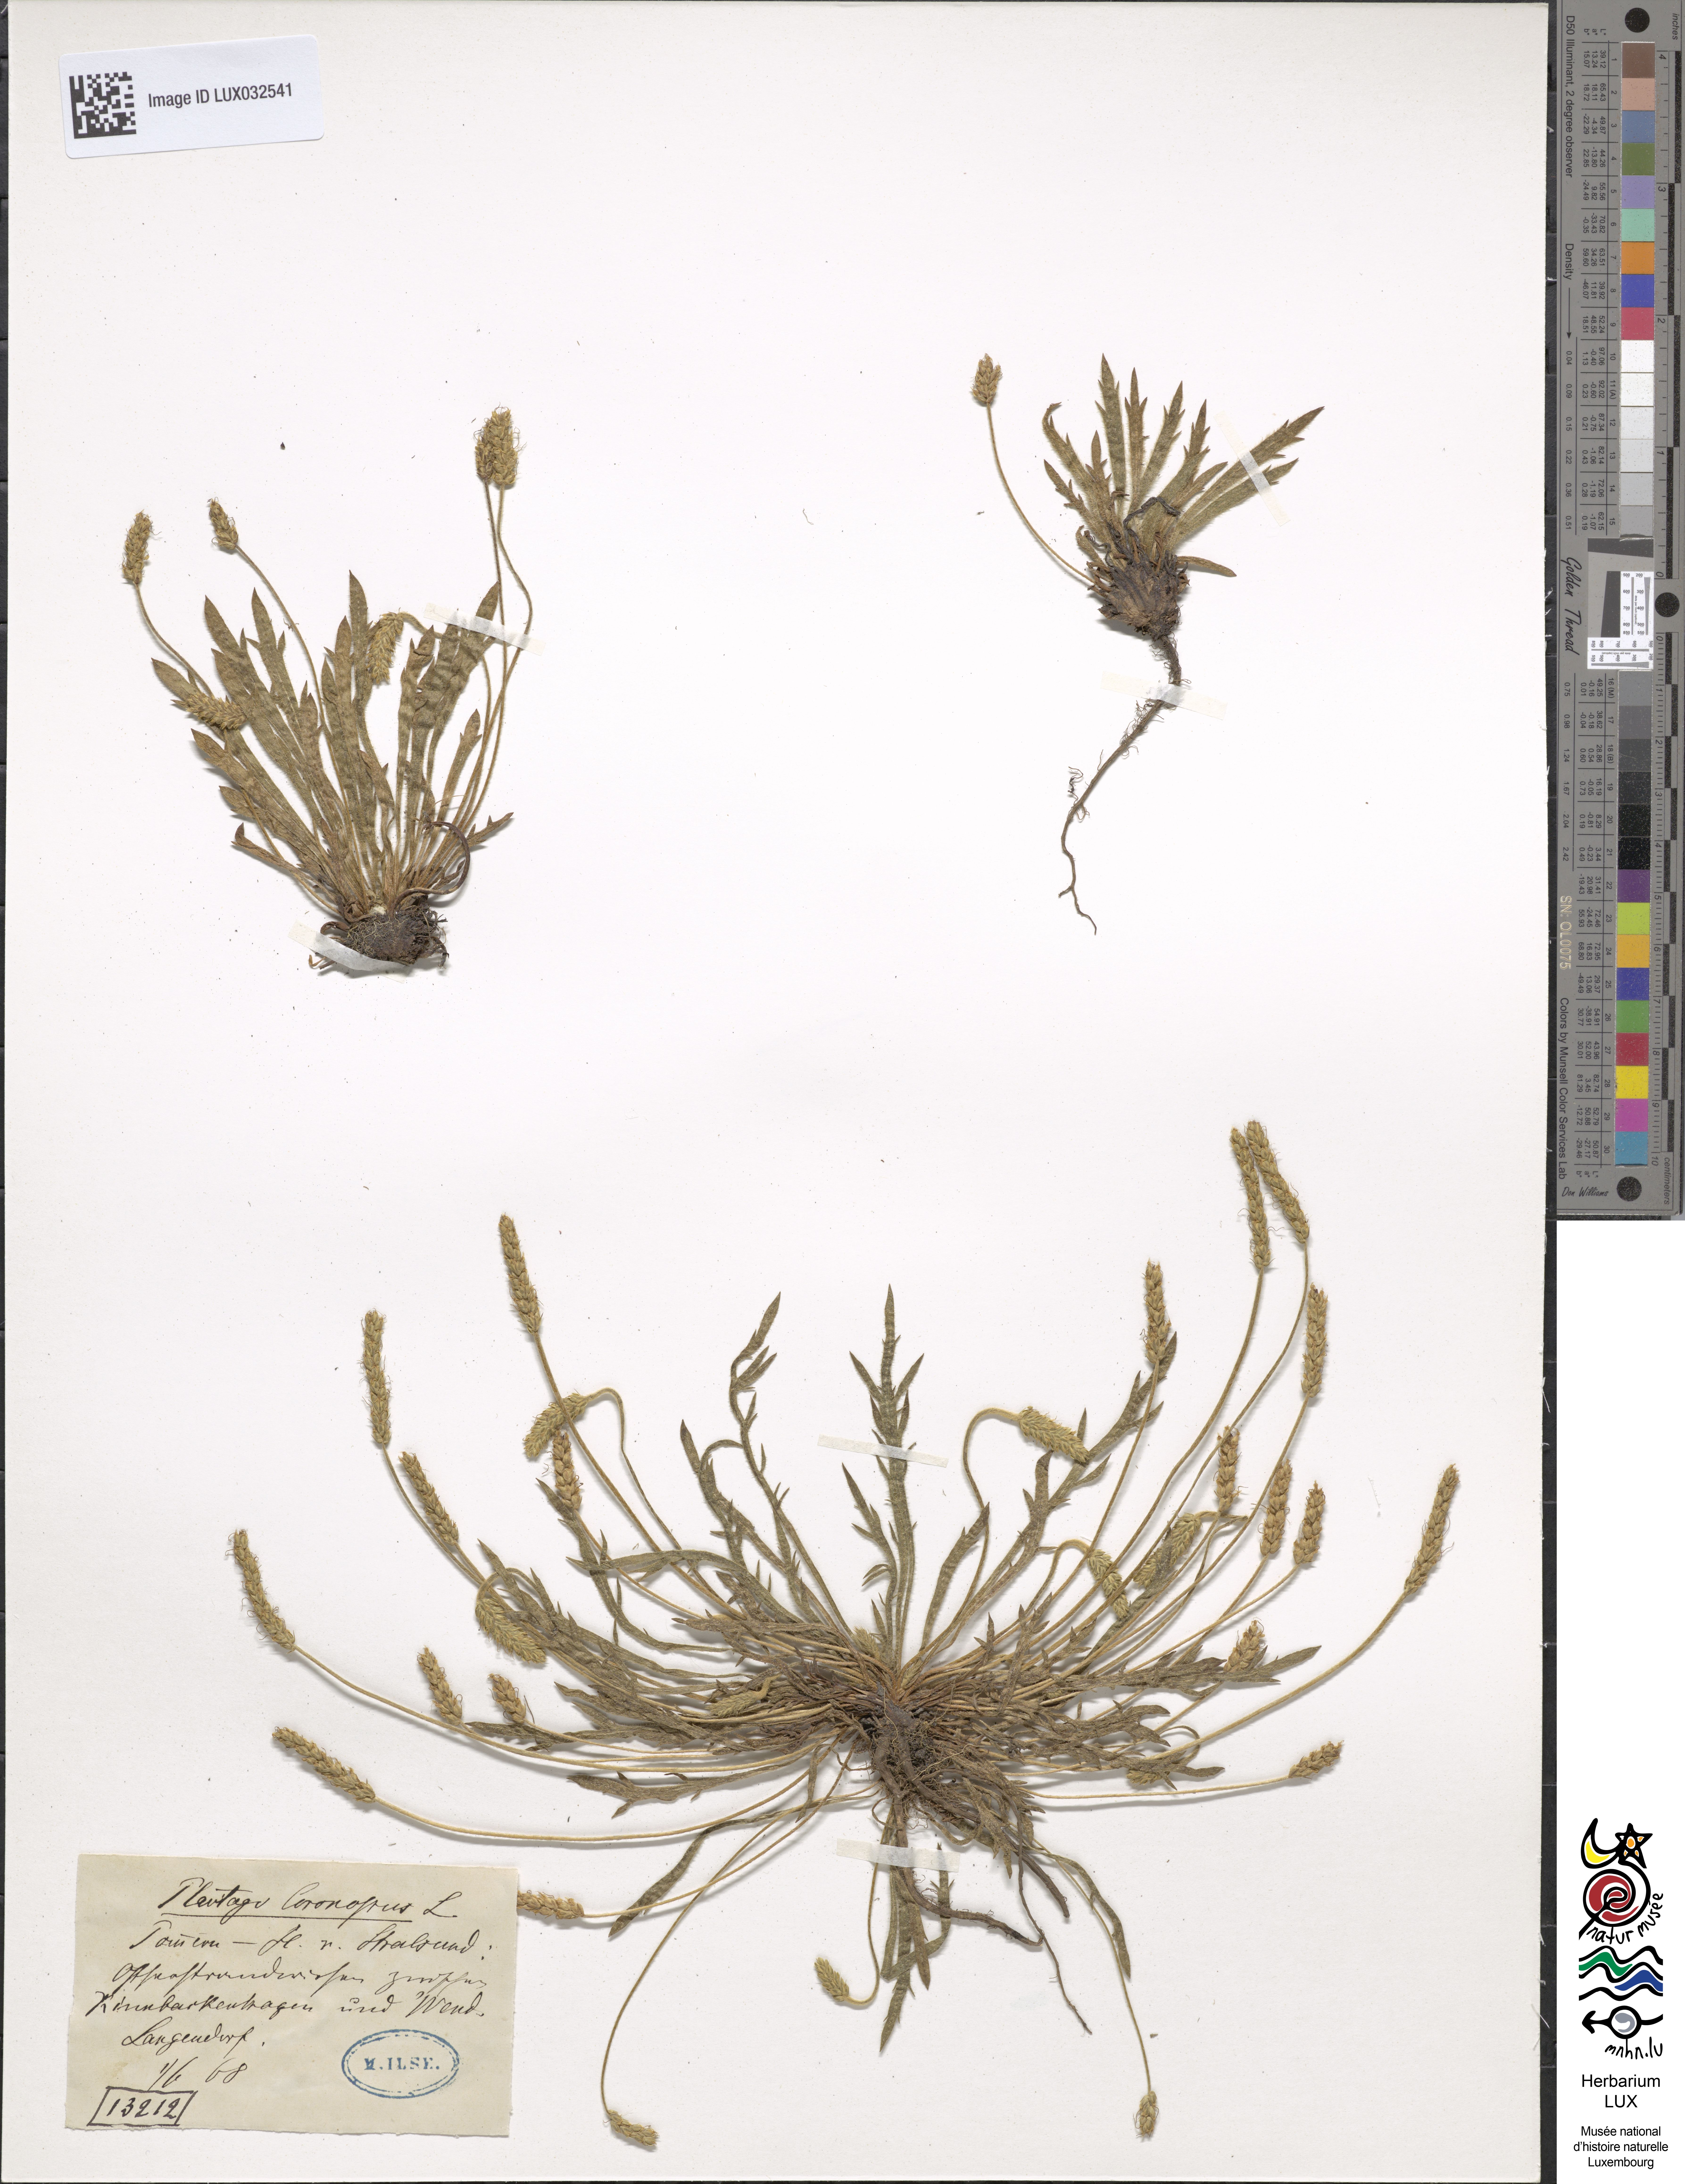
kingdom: Plantae
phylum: Tracheophyta
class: Magnoliopsida
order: Lamiales
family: Plantaginaceae
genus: Plantago
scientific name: Plantago coronopus
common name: Buck's-horn plantain
